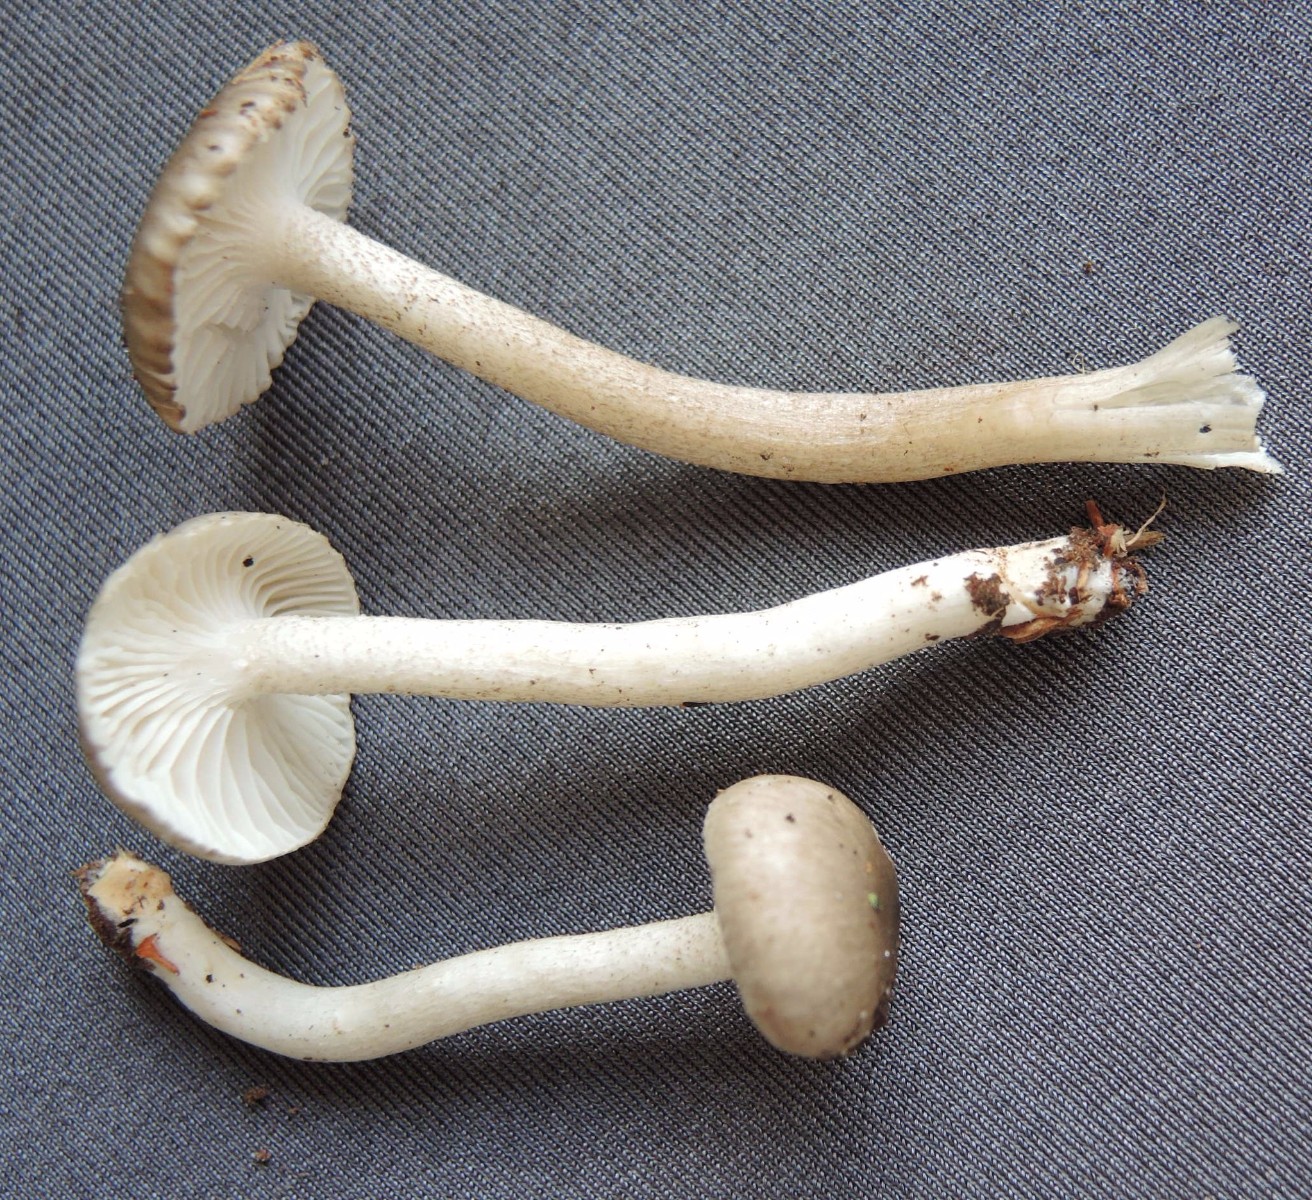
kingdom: Fungi
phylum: Basidiomycota
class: Agaricomycetes
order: Agaricales
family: Hygrophoraceae
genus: Hygrophorus
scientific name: Hygrophorus pustulatus
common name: mørkprikket sneglehat
